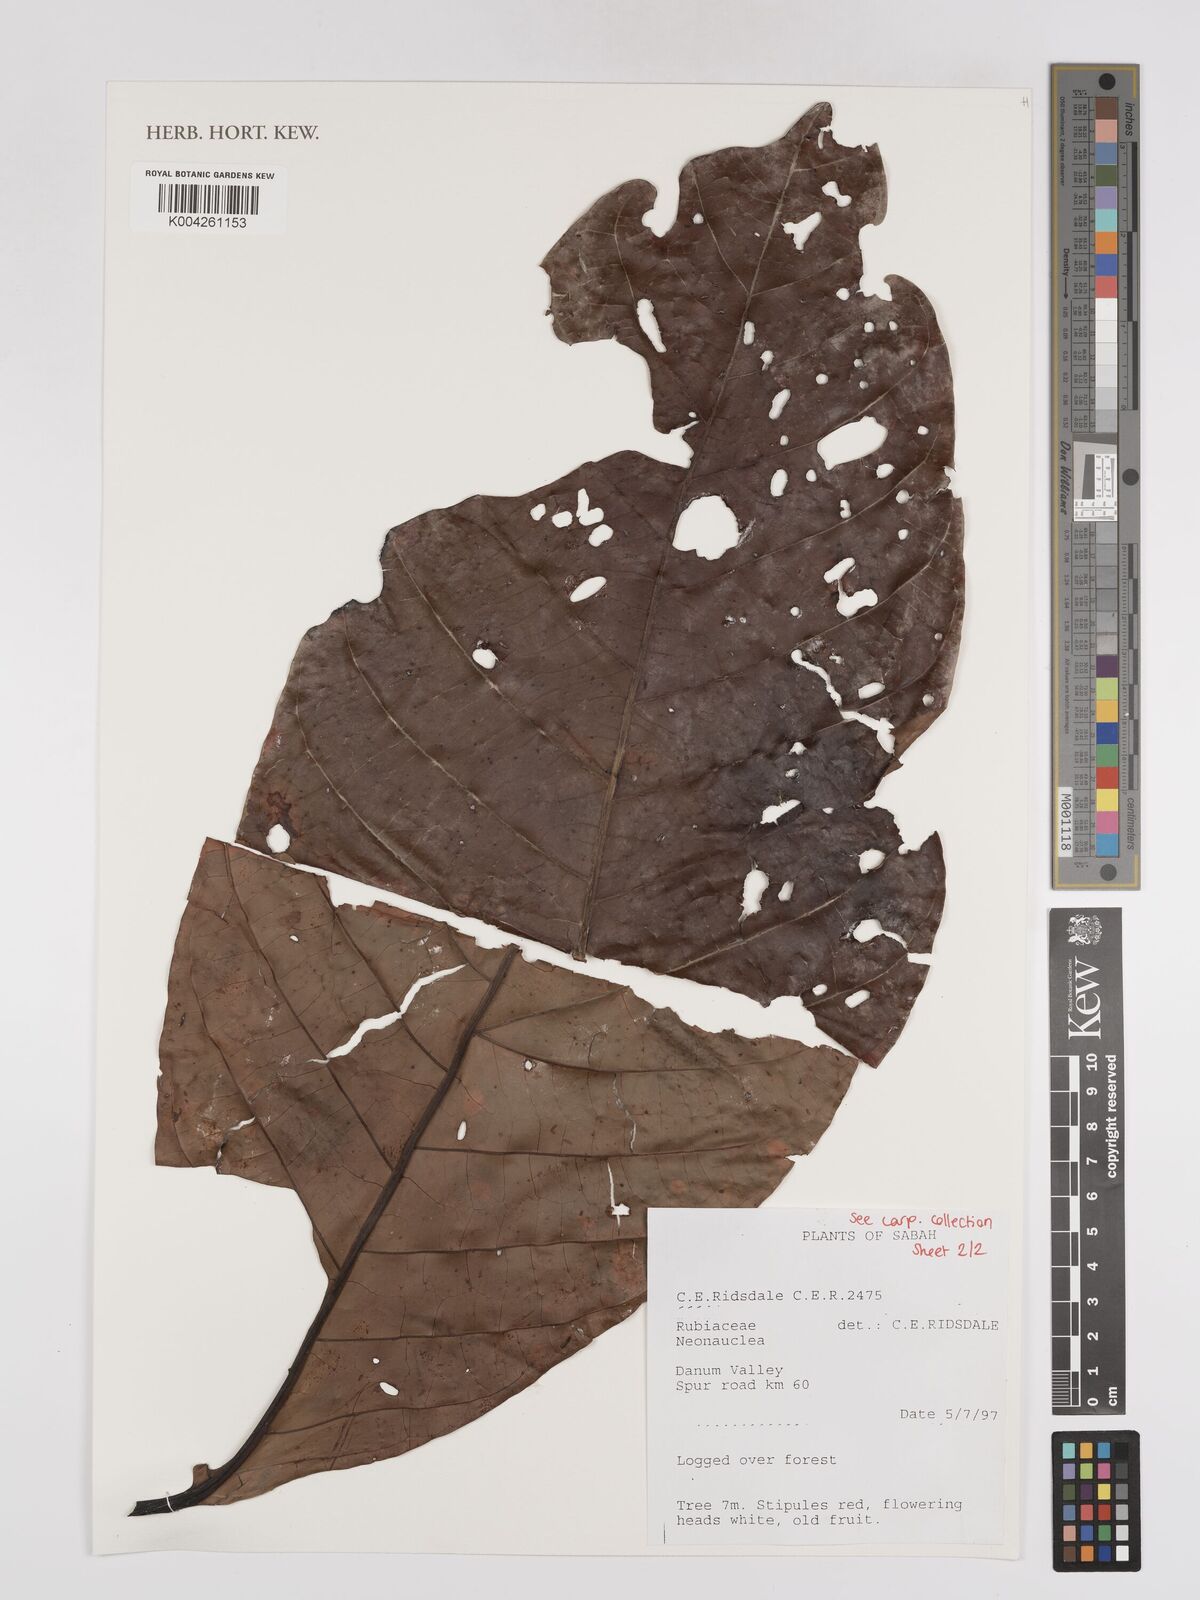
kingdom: Plantae
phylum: Tracheophyta
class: Magnoliopsida
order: Gentianales
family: Rubiaceae
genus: Neonauclea
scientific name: Neonauclea
